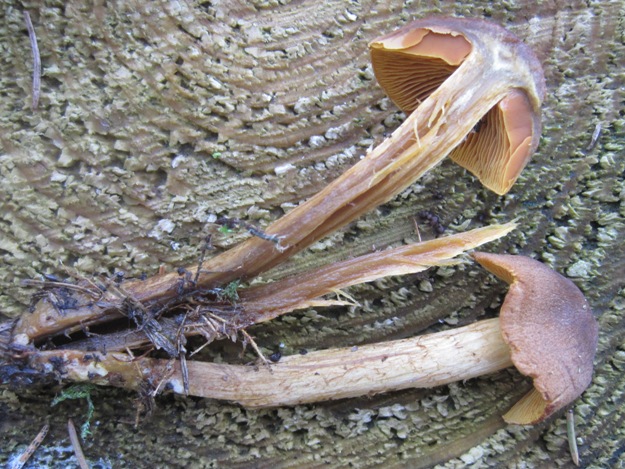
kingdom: Fungi
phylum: Basidiomycota
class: Agaricomycetes
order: Agaricales
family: Cortinariaceae
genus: Cortinarius
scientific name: Cortinarius malicorius
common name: grønkødet slørhat
